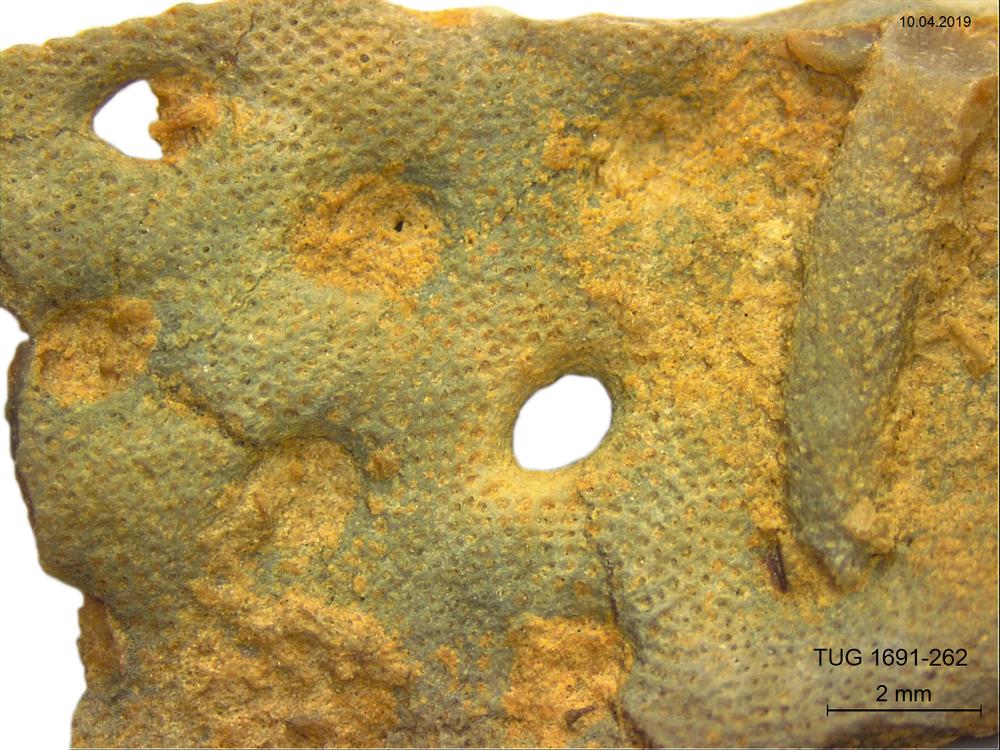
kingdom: Animalia
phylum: Bryozoa
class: Stenolaemata
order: Cryptostomida
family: Escharoporidae
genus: Graptodictya
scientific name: Graptodictya proava
